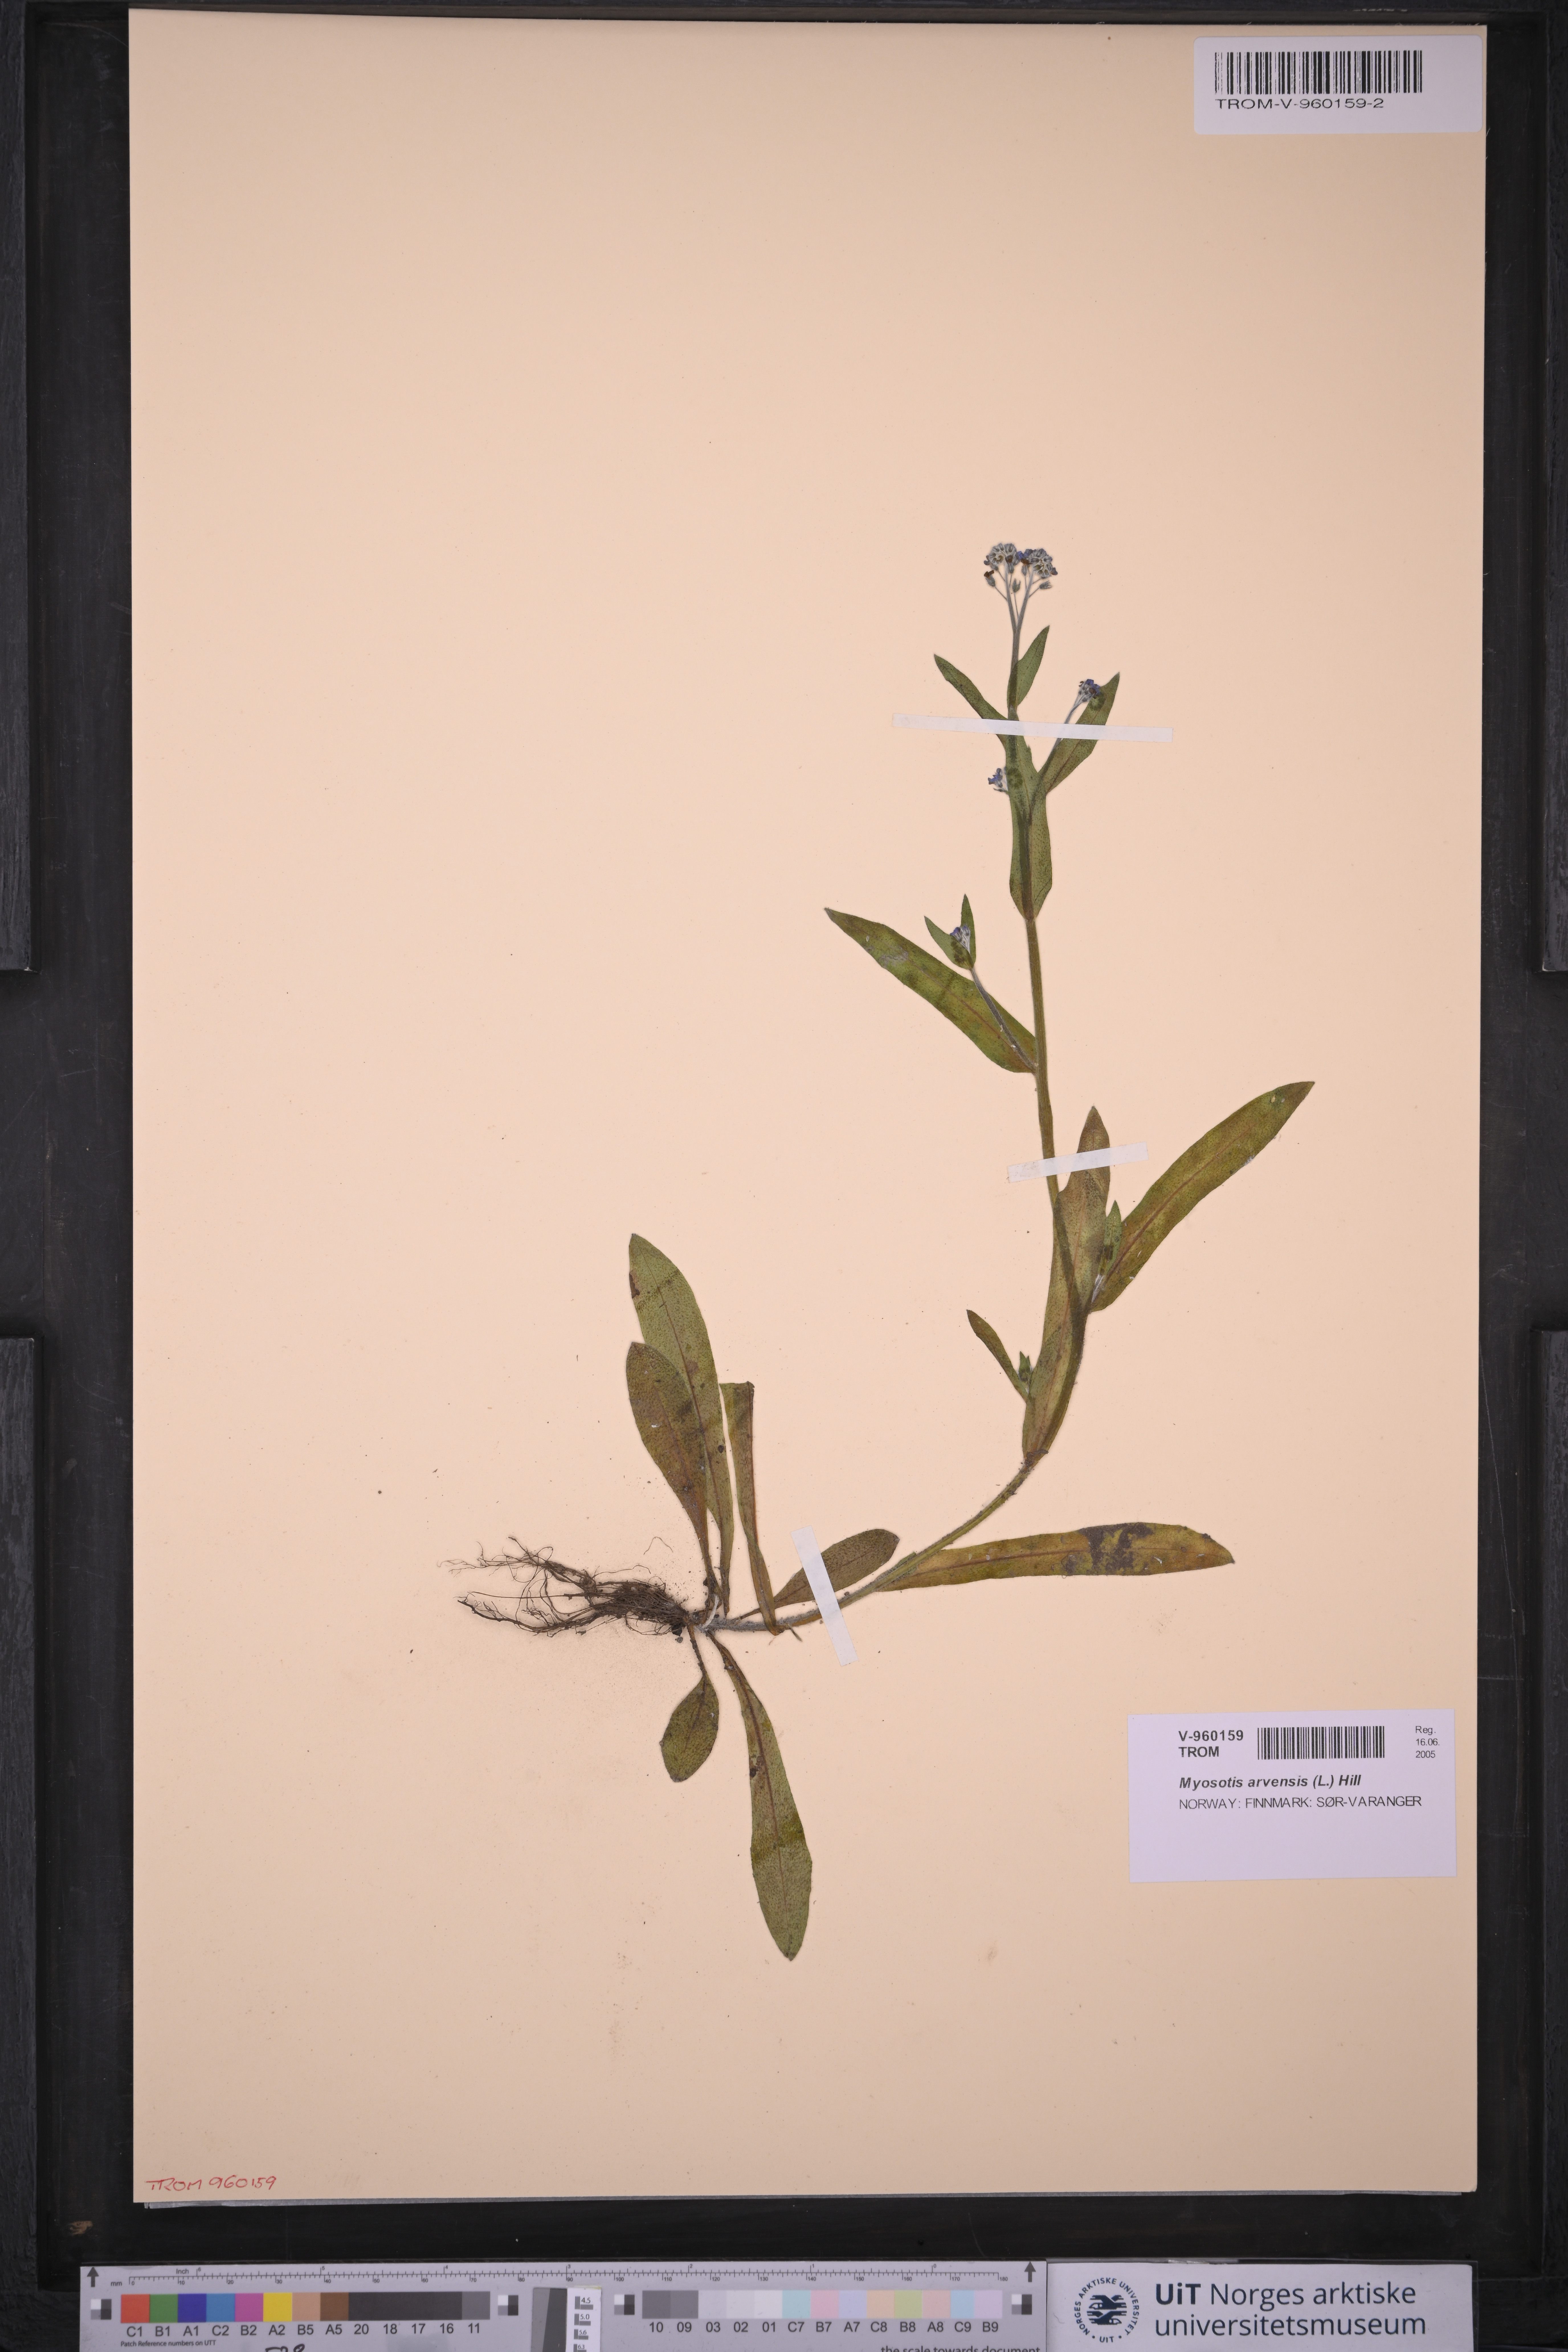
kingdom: Plantae
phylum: Tracheophyta
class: Magnoliopsida
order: Boraginales
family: Boraginaceae
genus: Myosotis
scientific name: Myosotis arvensis
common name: Field forget-me-not
